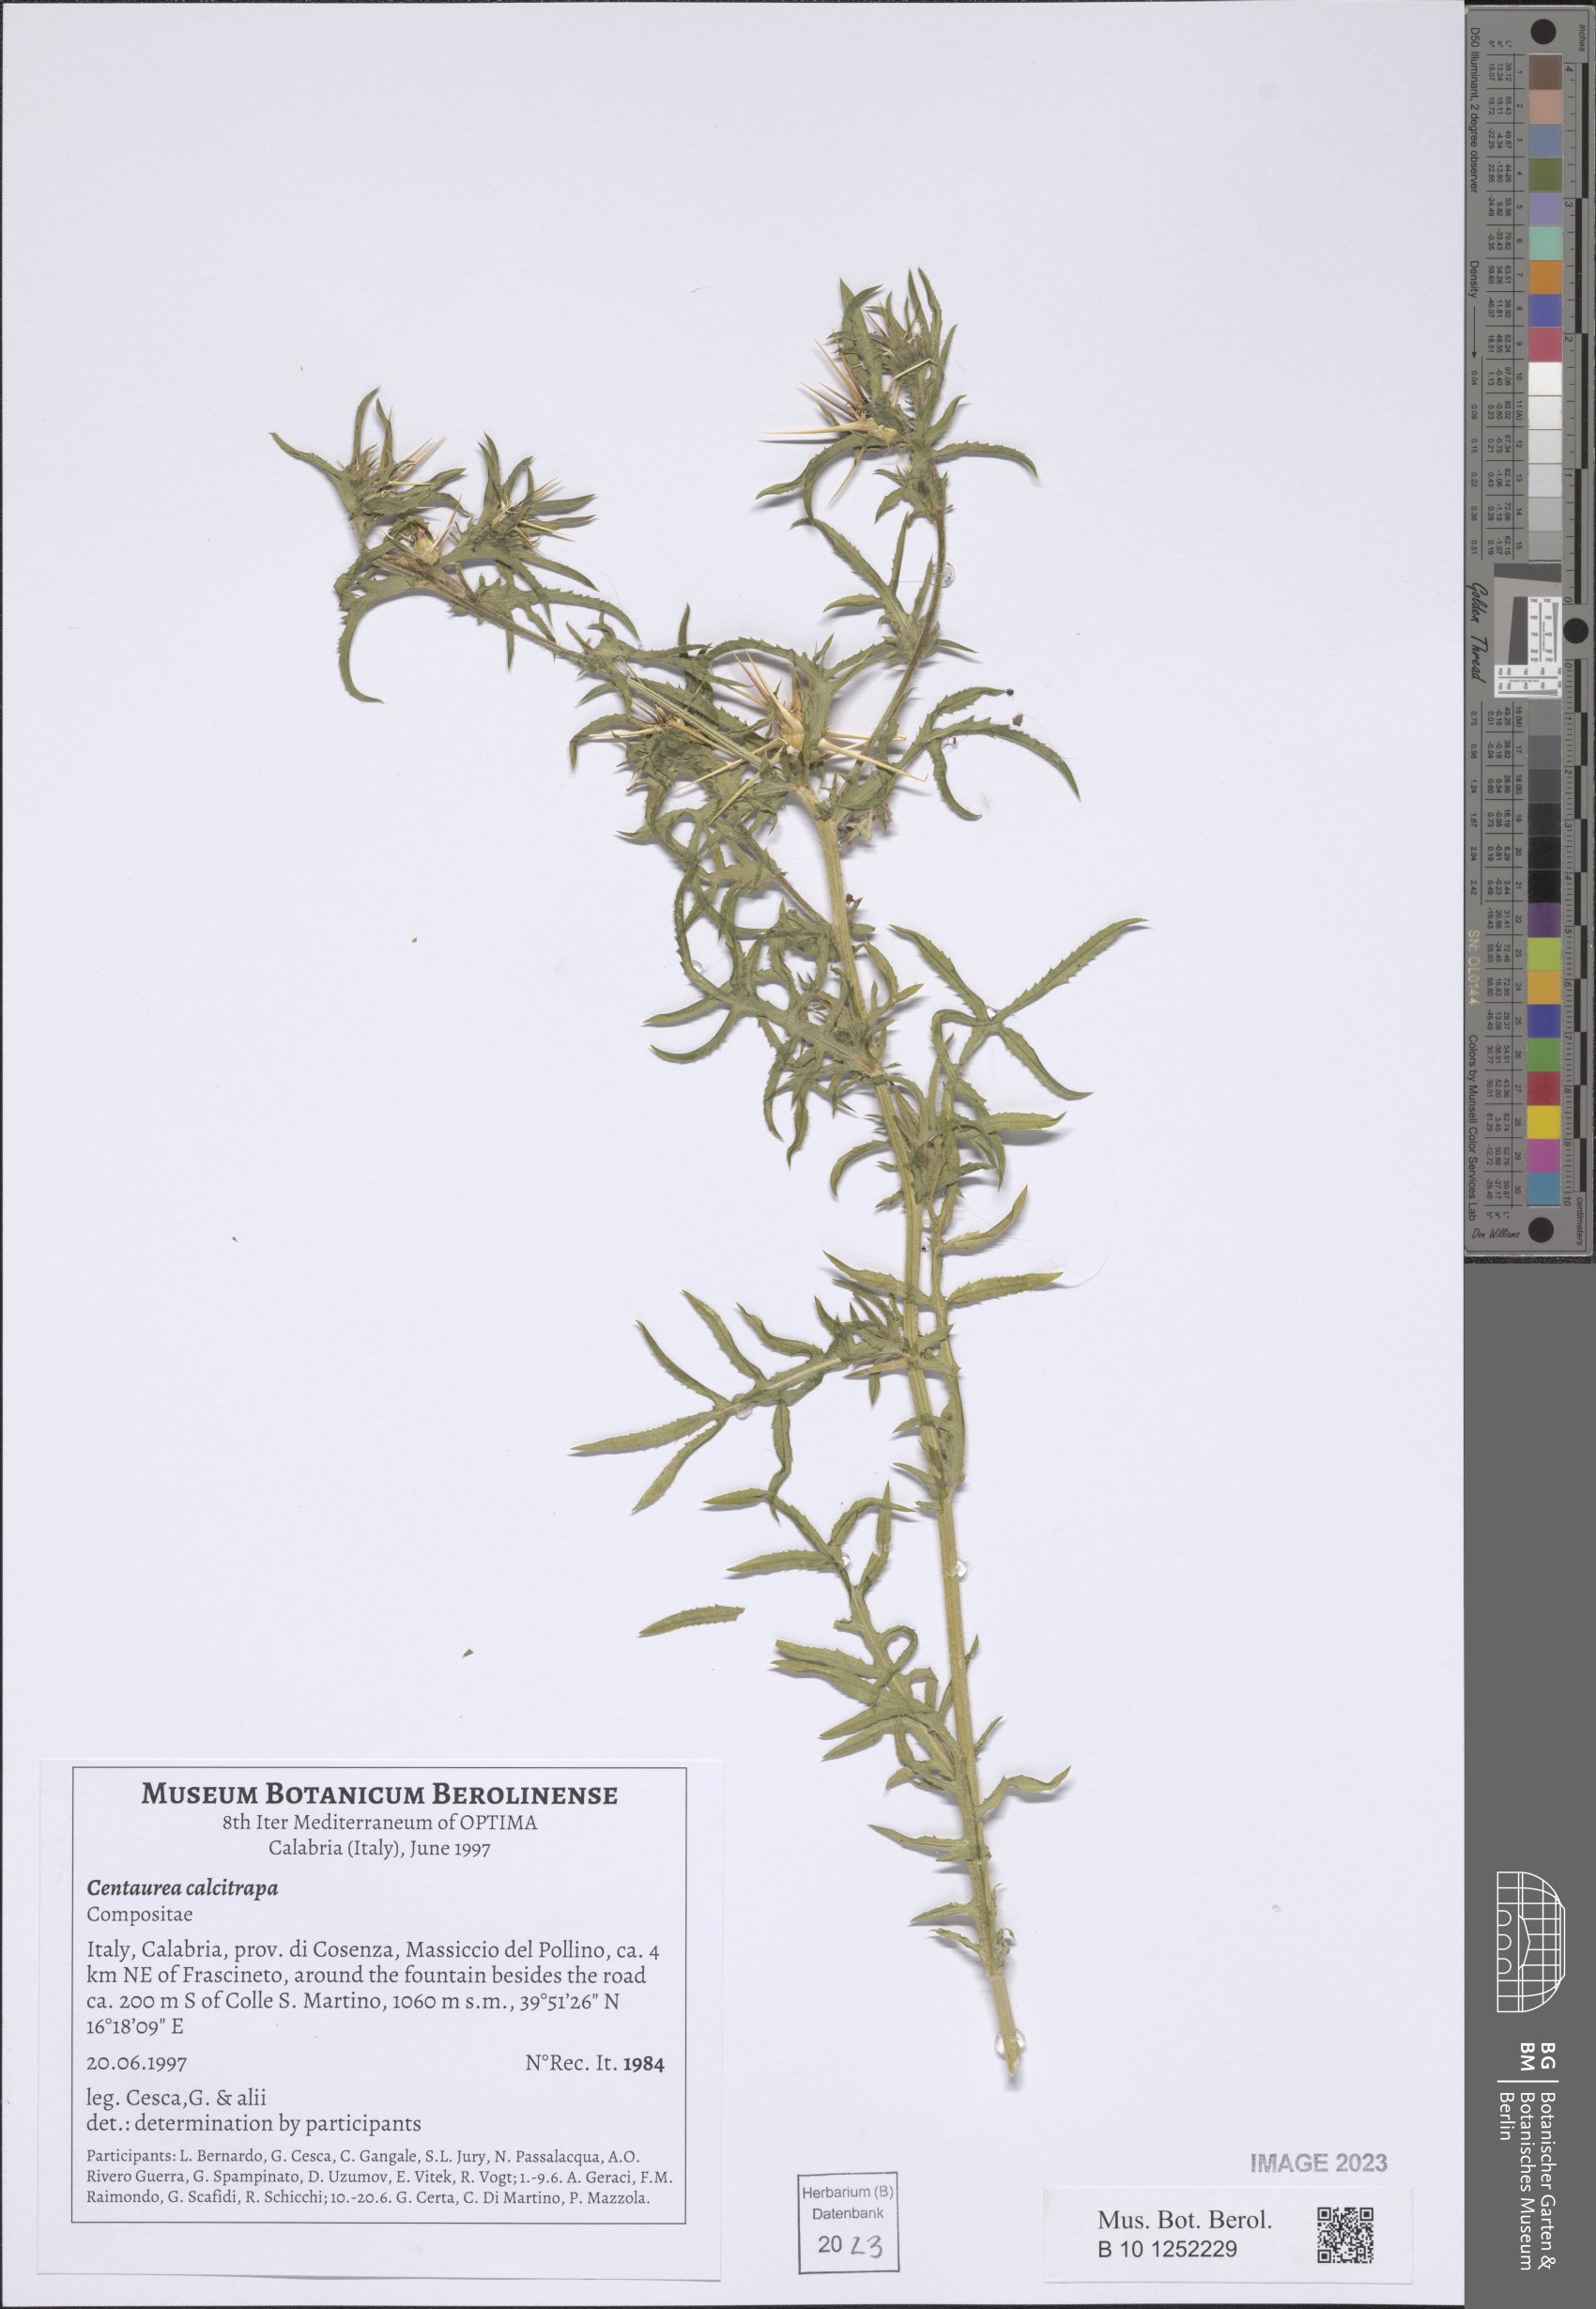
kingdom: Plantae
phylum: Tracheophyta
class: Magnoliopsida
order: Asterales
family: Asteraceae
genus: Centaurea
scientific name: Centaurea calcitrapa
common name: Red star-thistle
